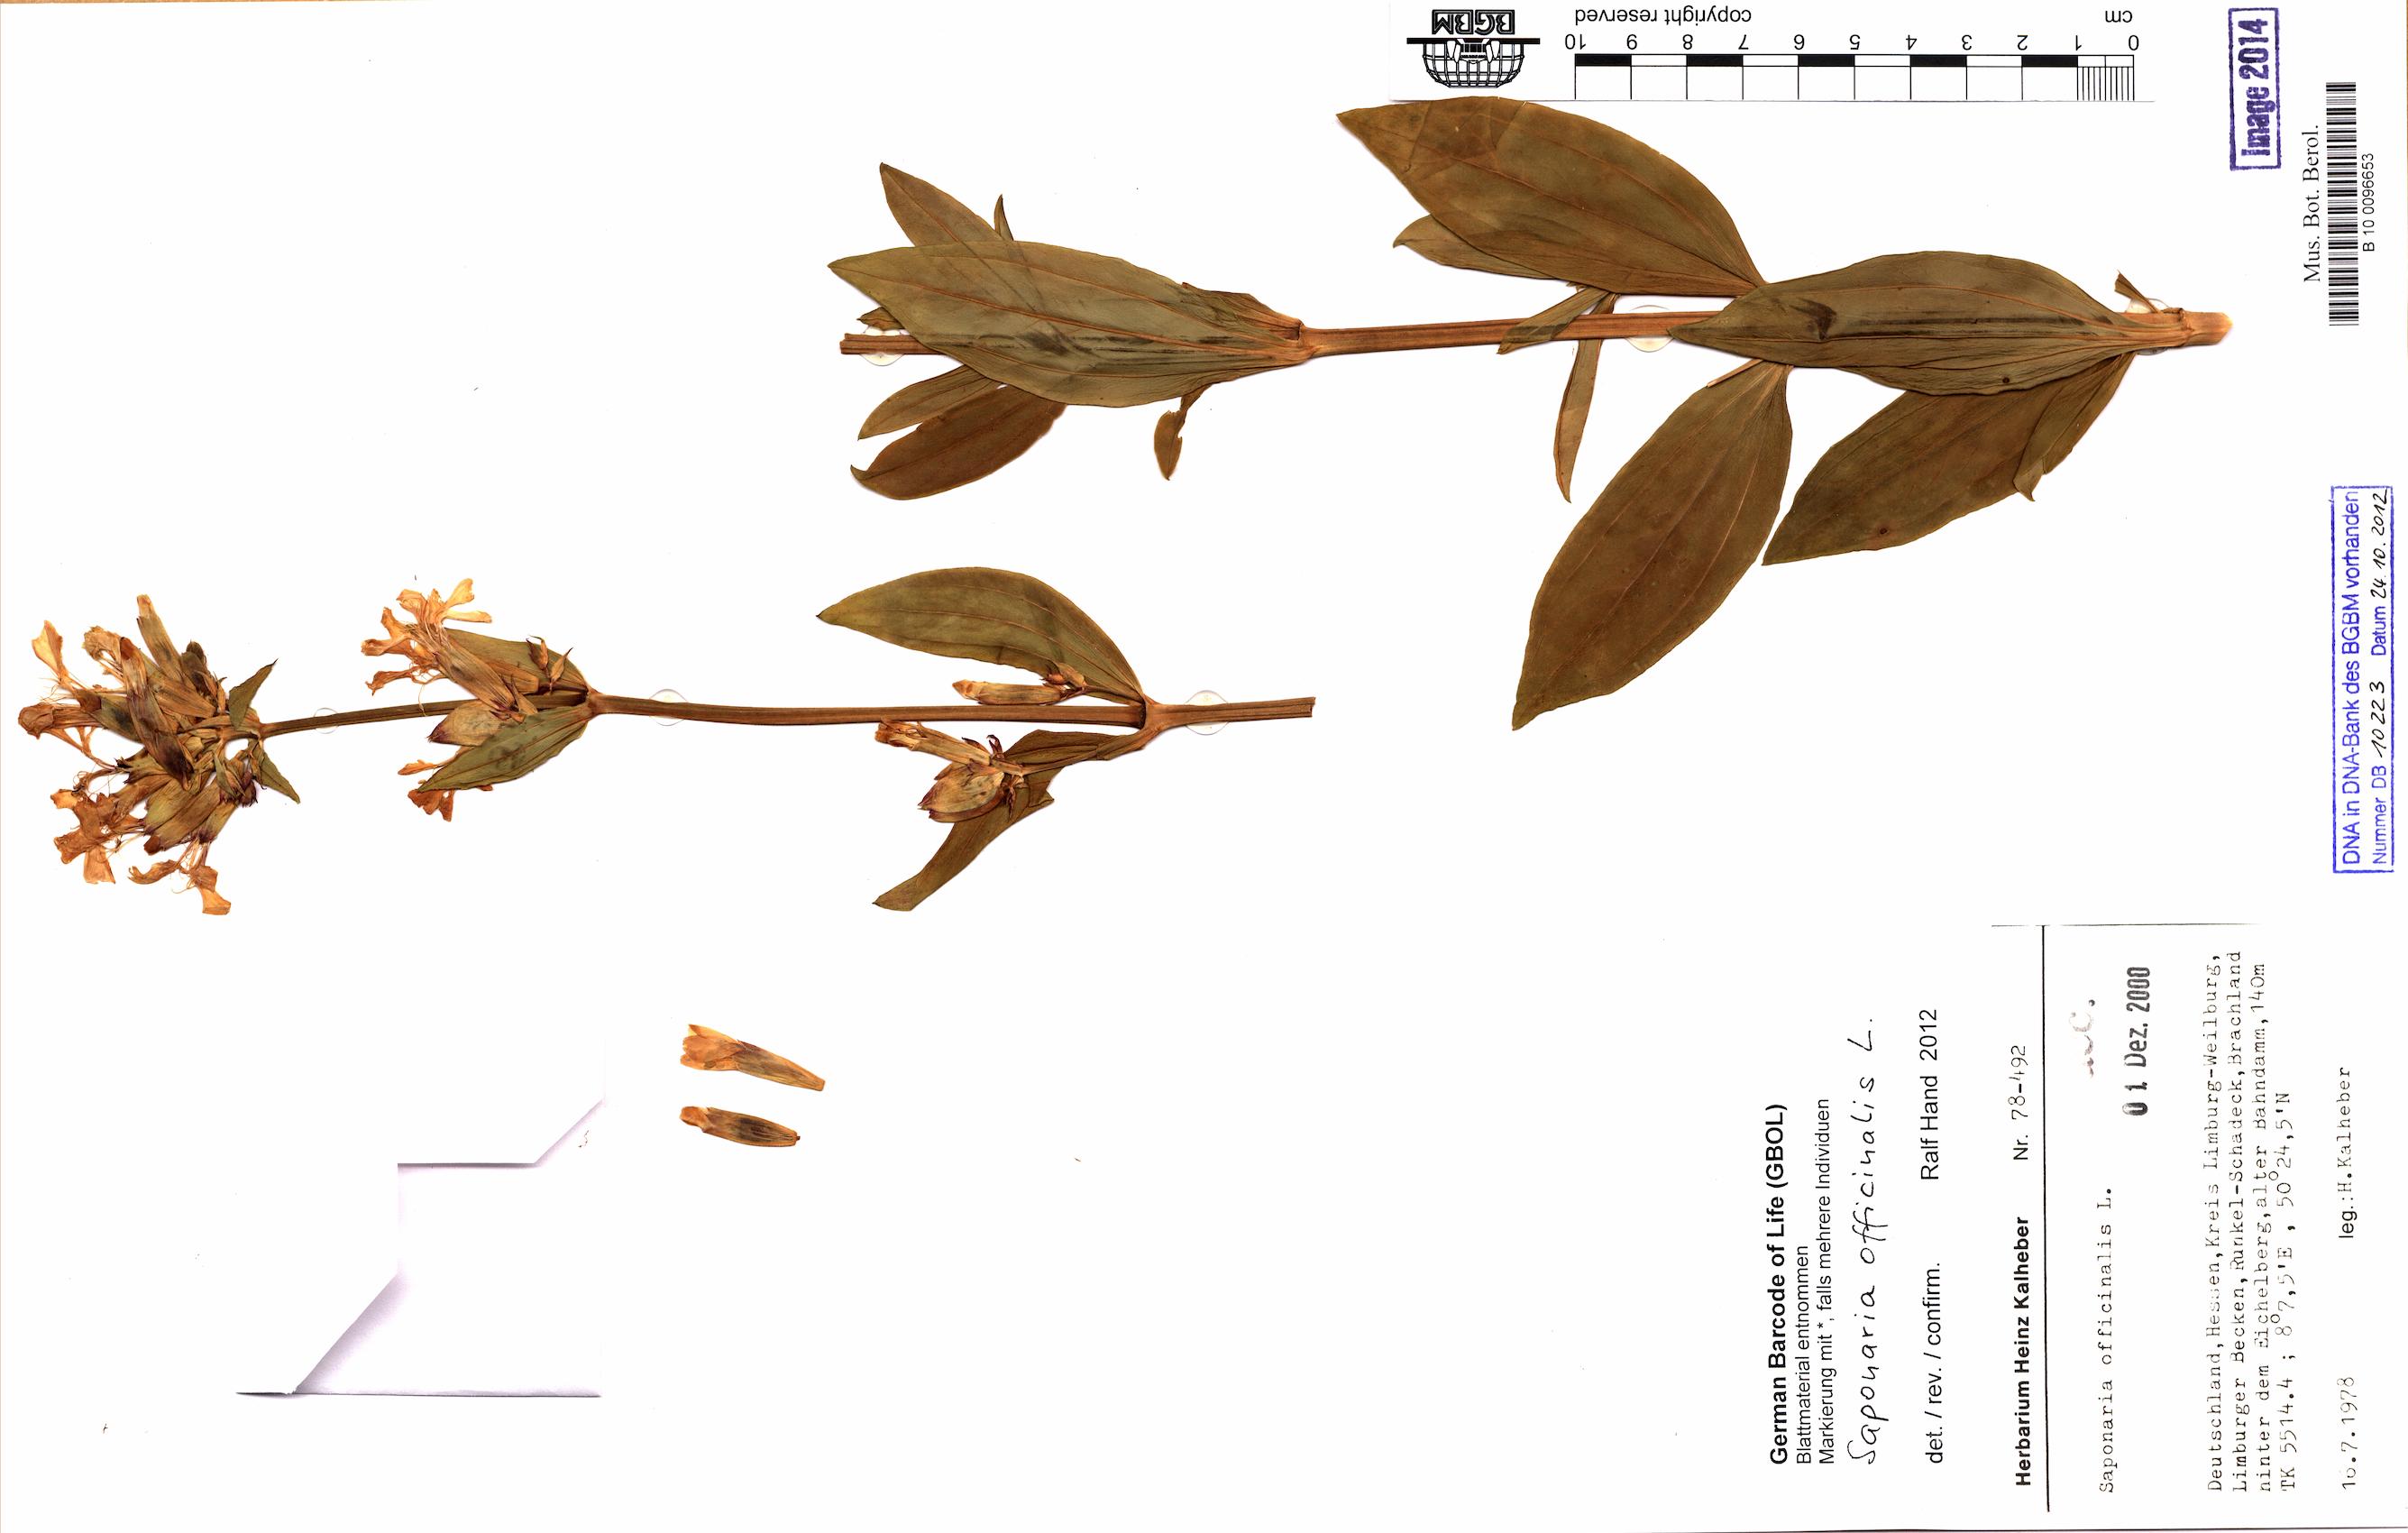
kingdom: Plantae
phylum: Tracheophyta
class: Magnoliopsida
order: Caryophyllales
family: Caryophyllaceae
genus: Saponaria
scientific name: Saponaria officinalis
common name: Soapwort
